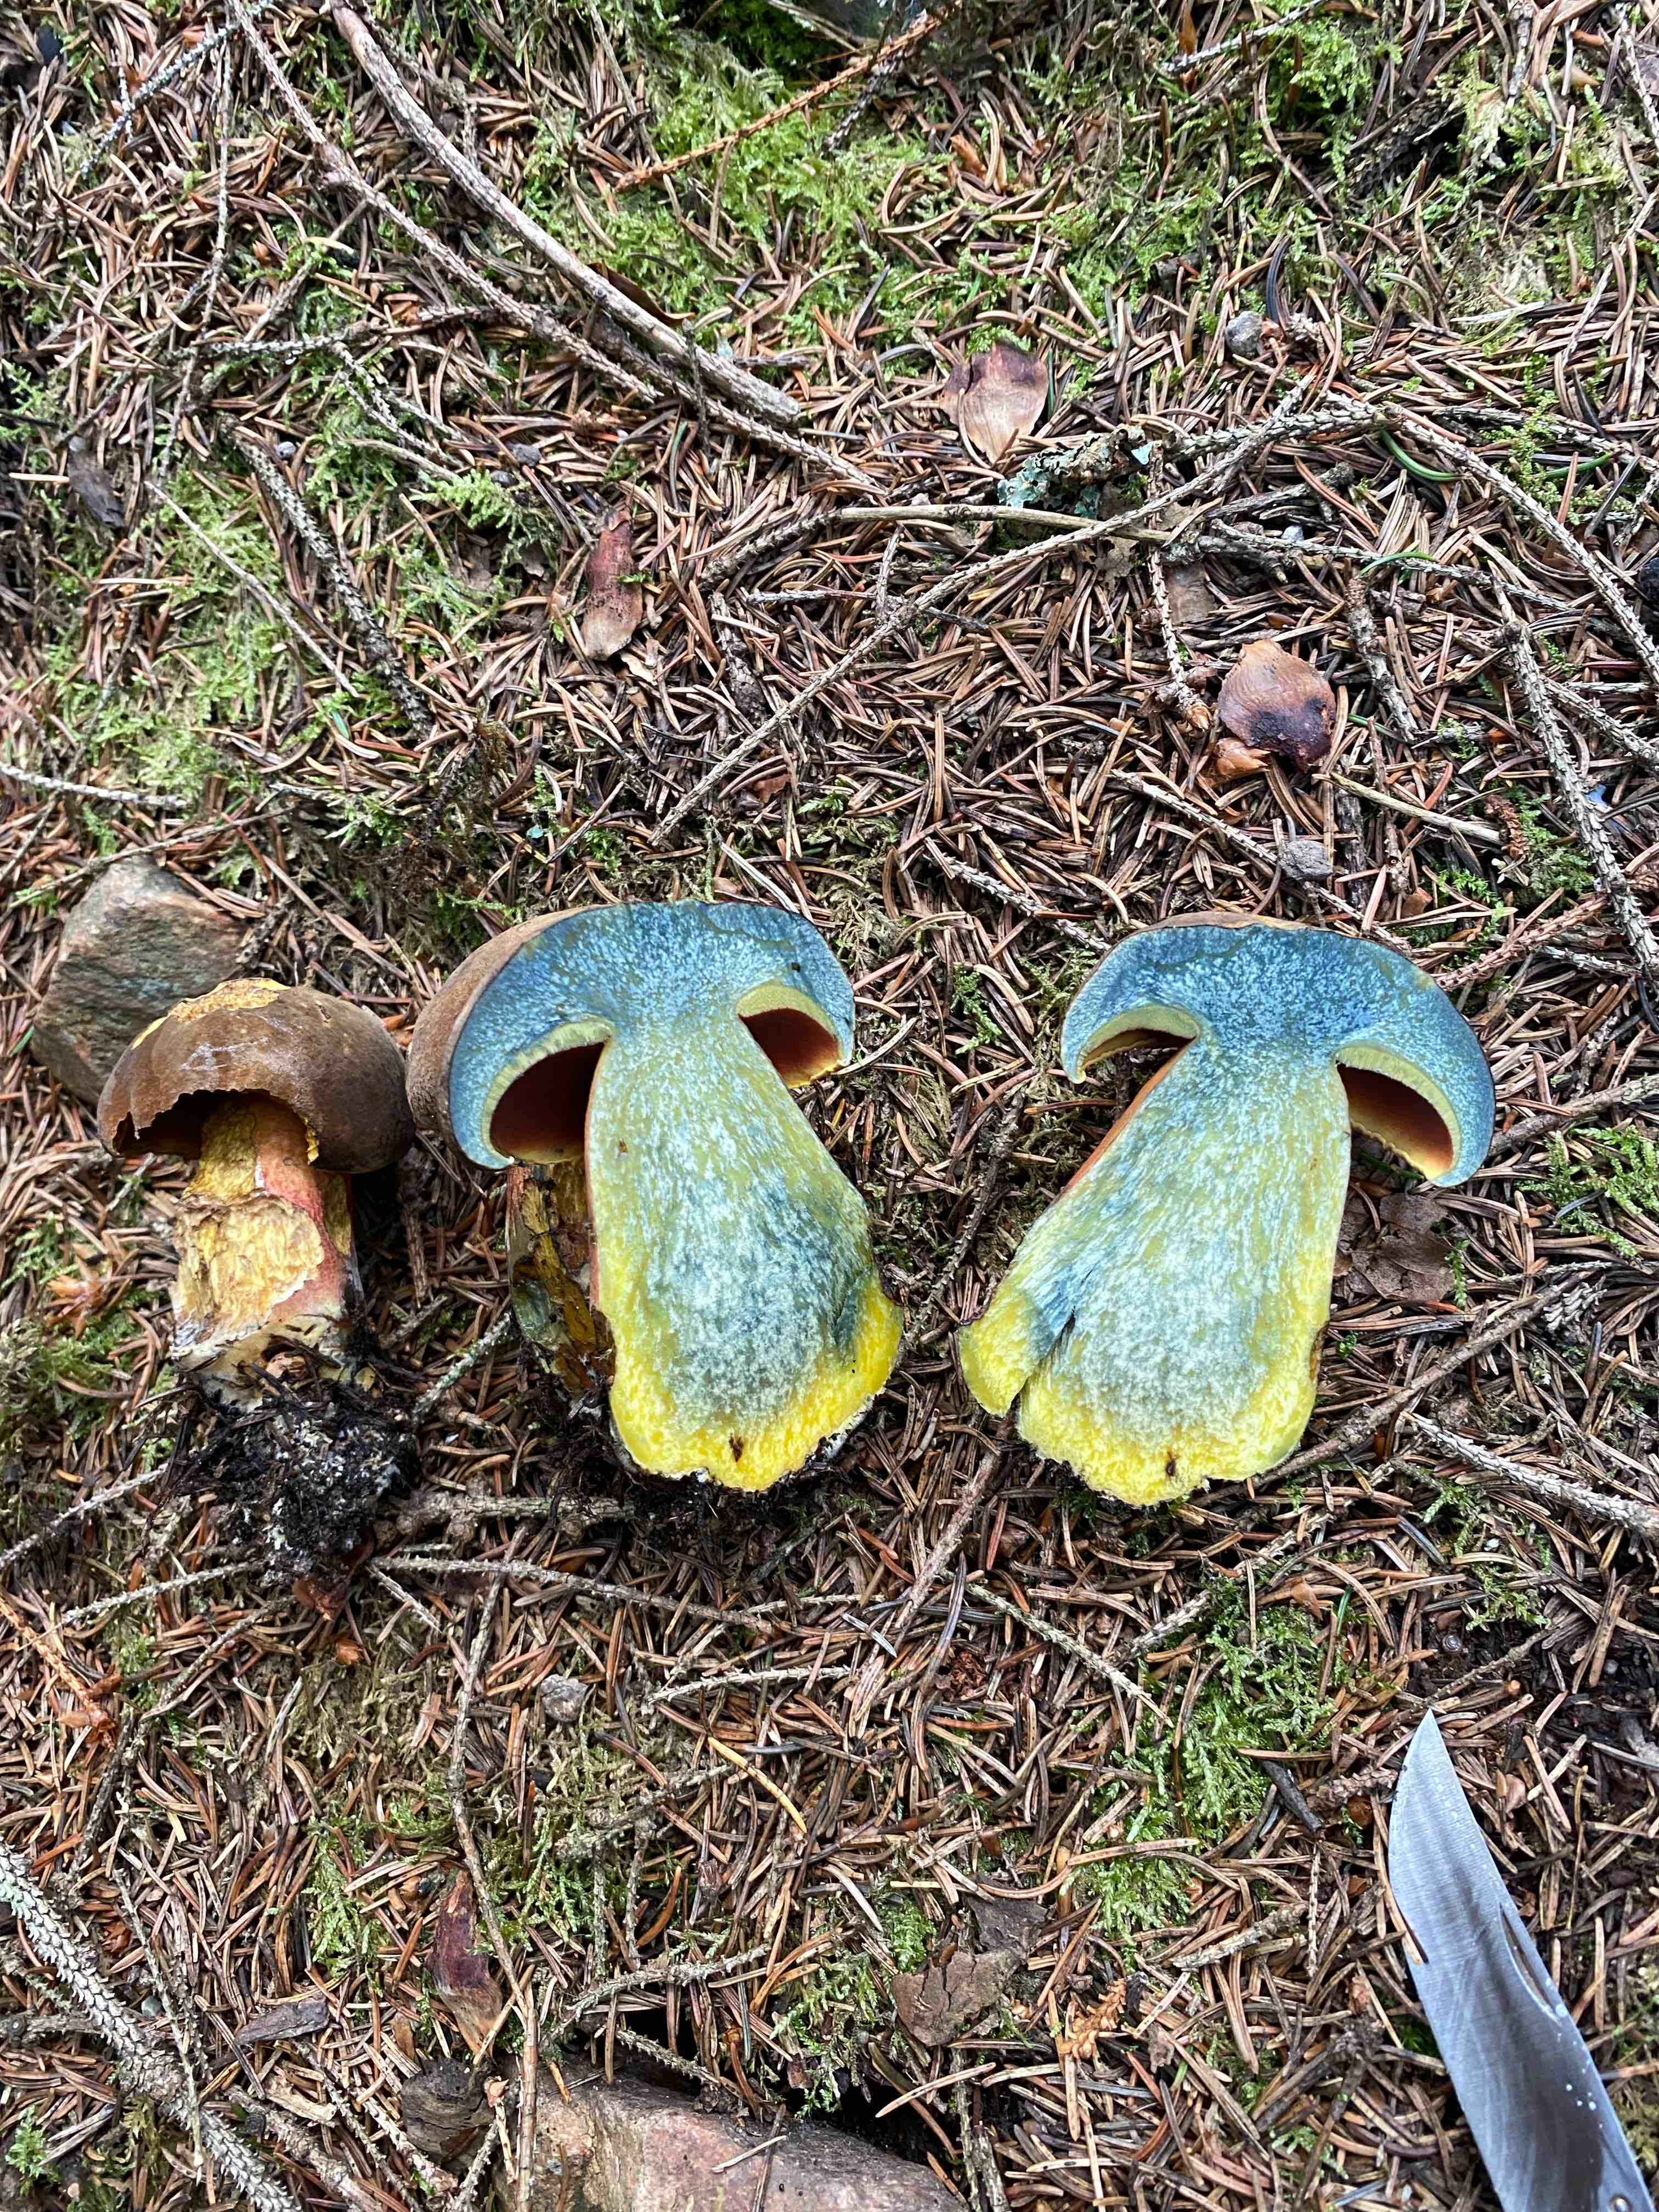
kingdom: Fungi
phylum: Basidiomycota
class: Agaricomycetes
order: Boletales
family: Boletaceae
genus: Neoboletus
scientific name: Neoboletus erythropus
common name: punktstokket indigorørhat
